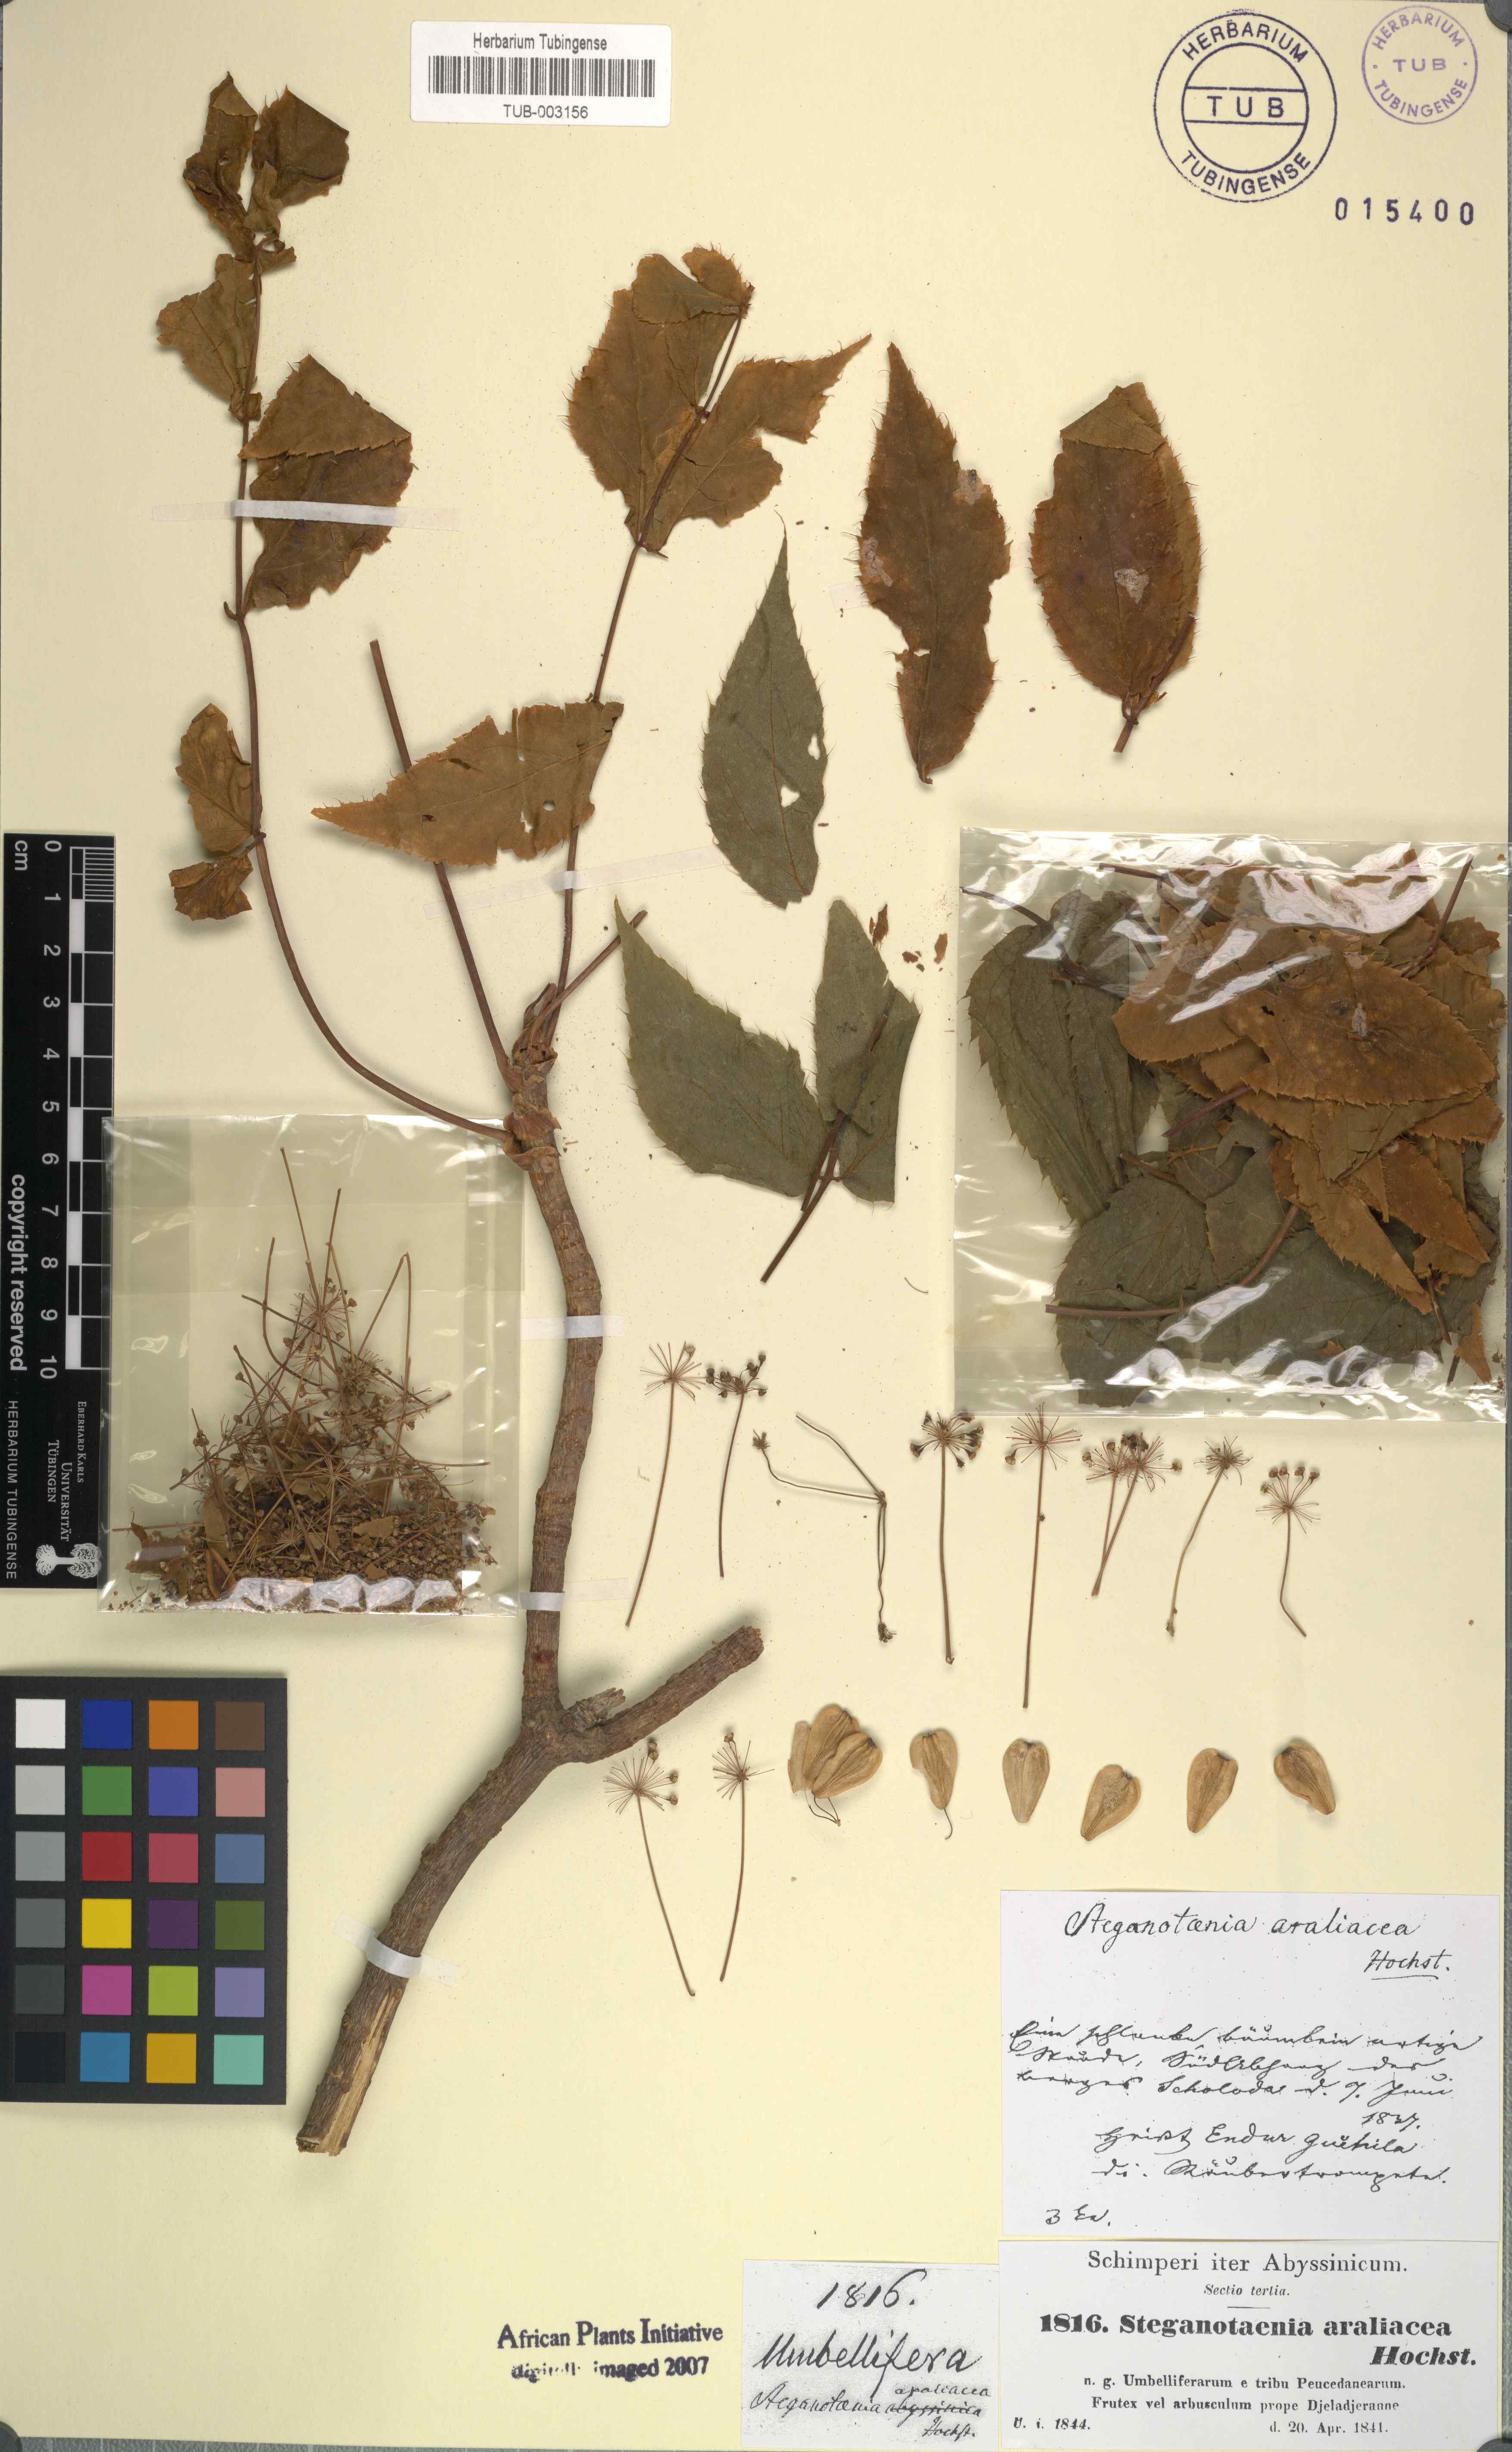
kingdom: Plantae
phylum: Tracheophyta
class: Magnoliopsida
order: Apiales
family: Apiaceae
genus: Steganotaenia
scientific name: Steganotaenia araliacea
